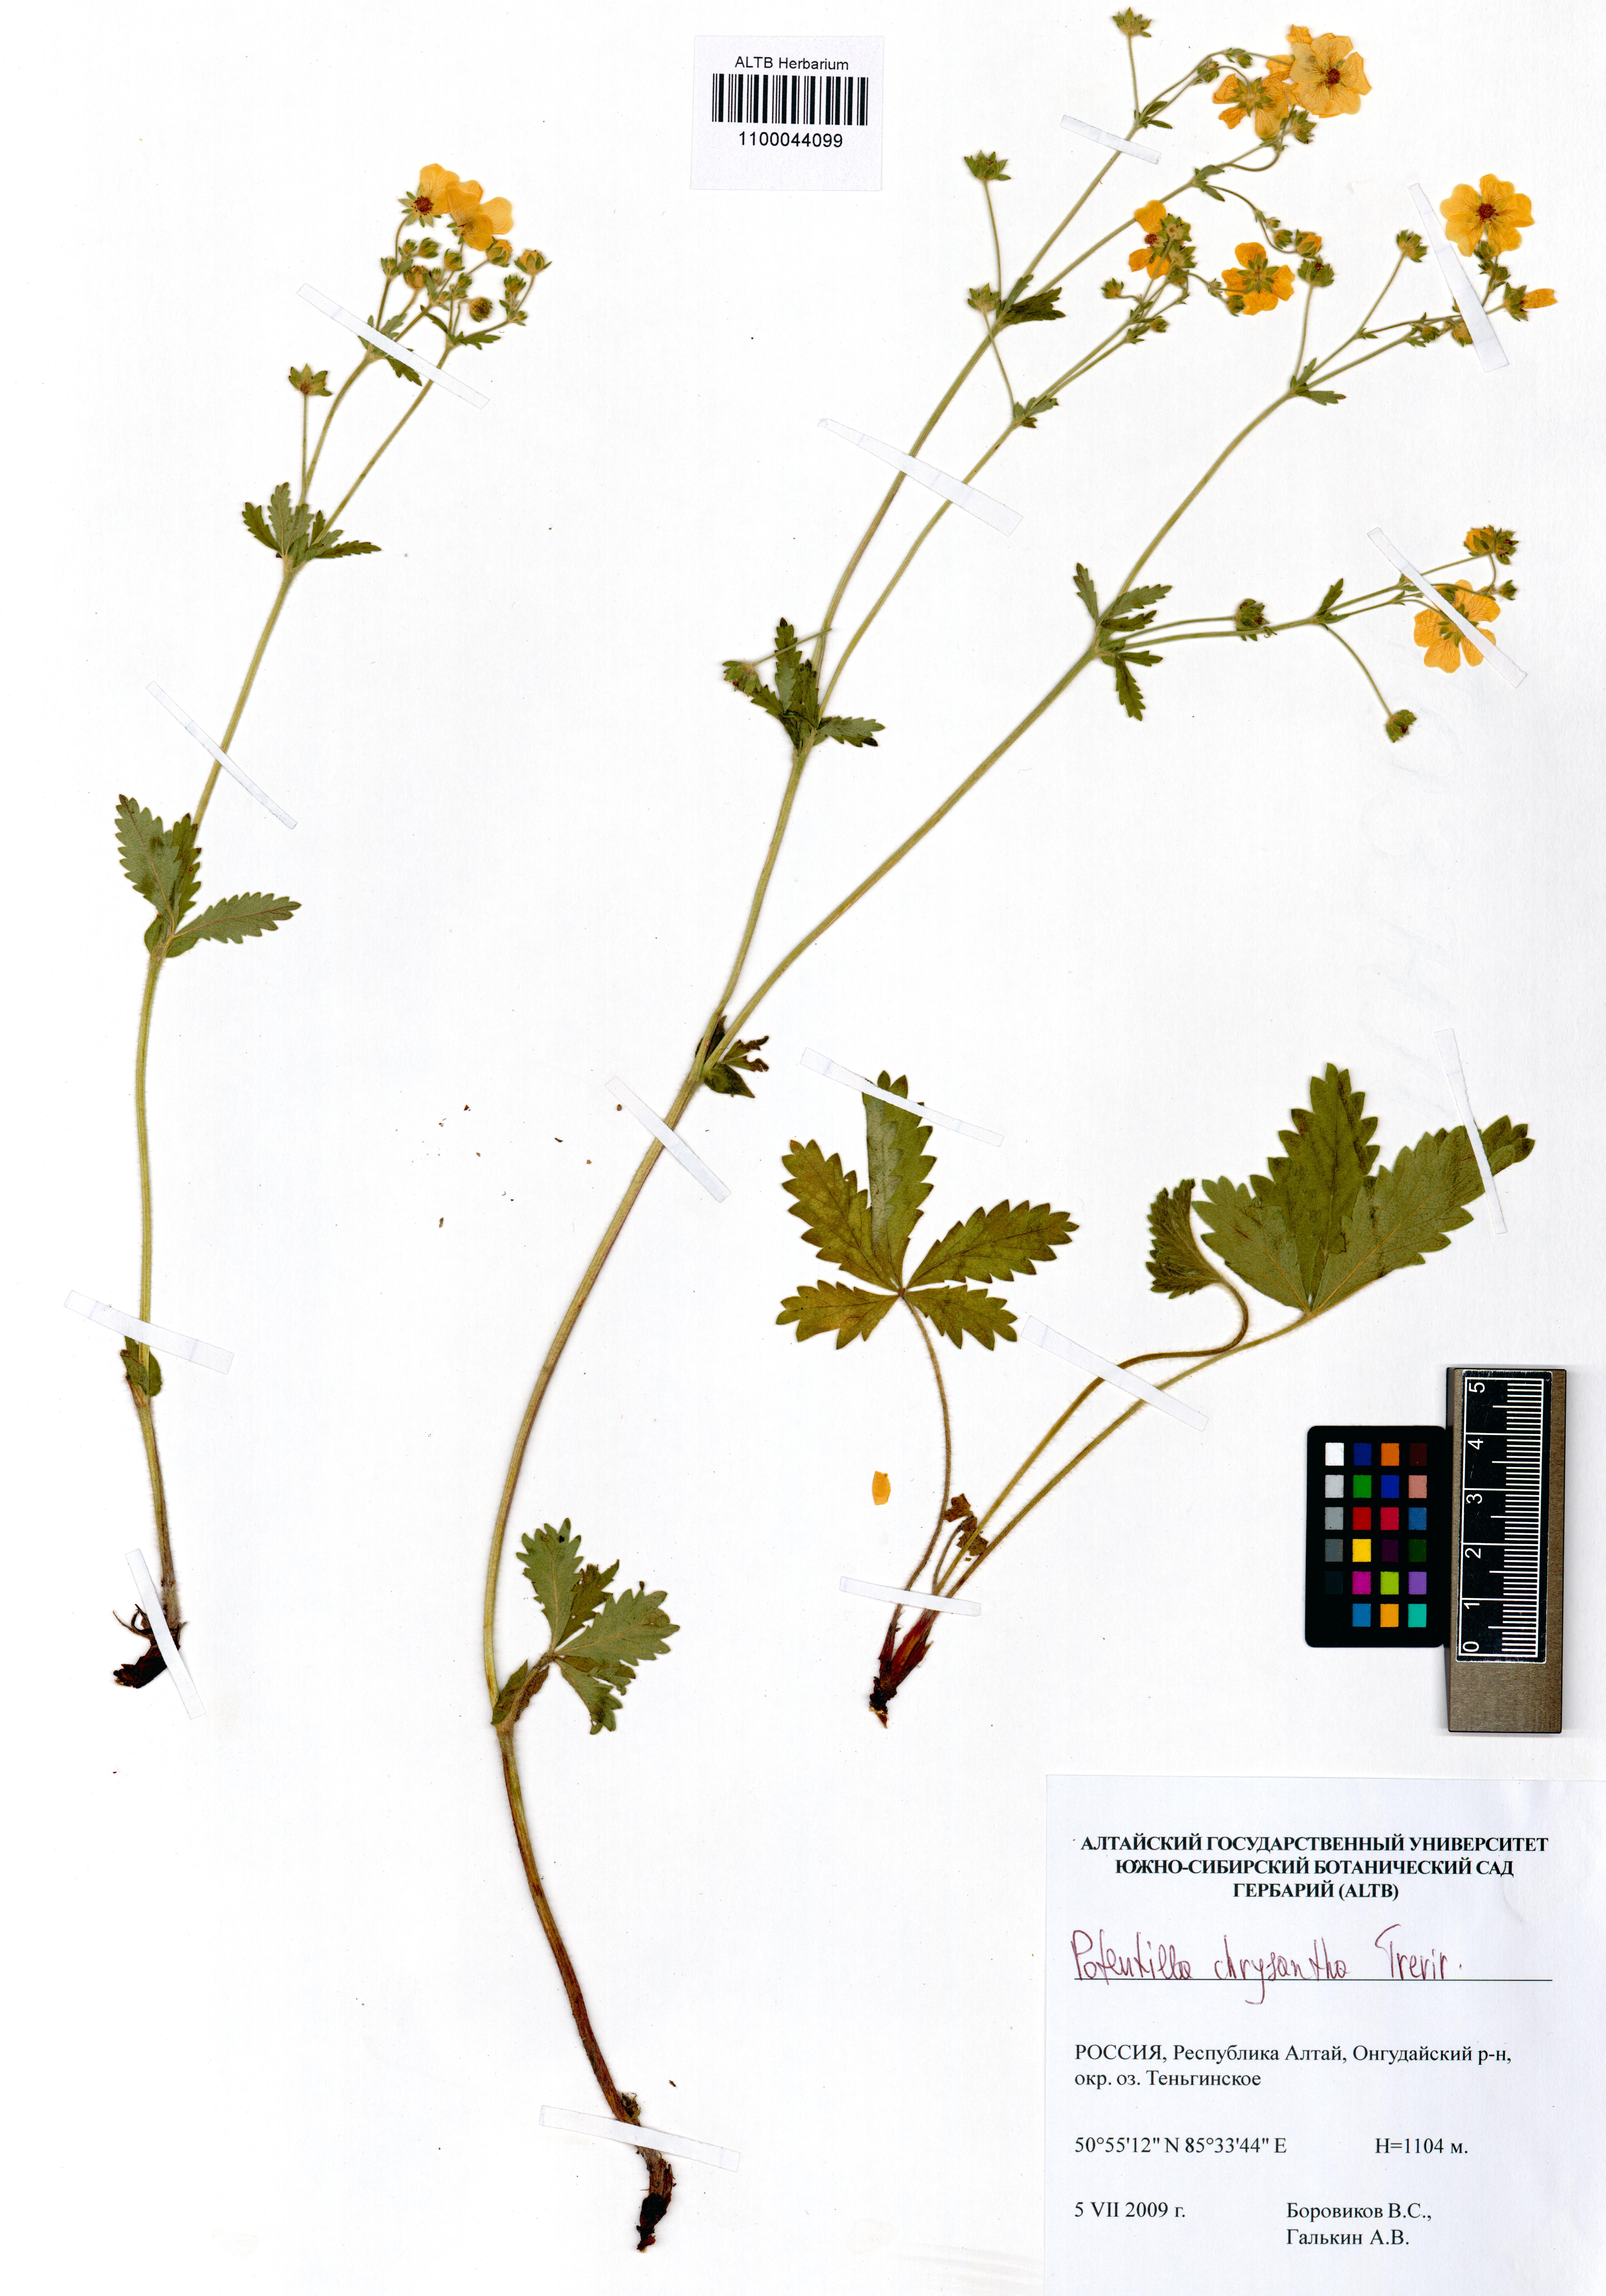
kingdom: Plantae
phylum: Tracheophyta
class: Magnoliopsida
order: Rosales
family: Rosaceae
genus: Potentilla
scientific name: Potentilla chrysantha
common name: Thuringian cinquefoil
